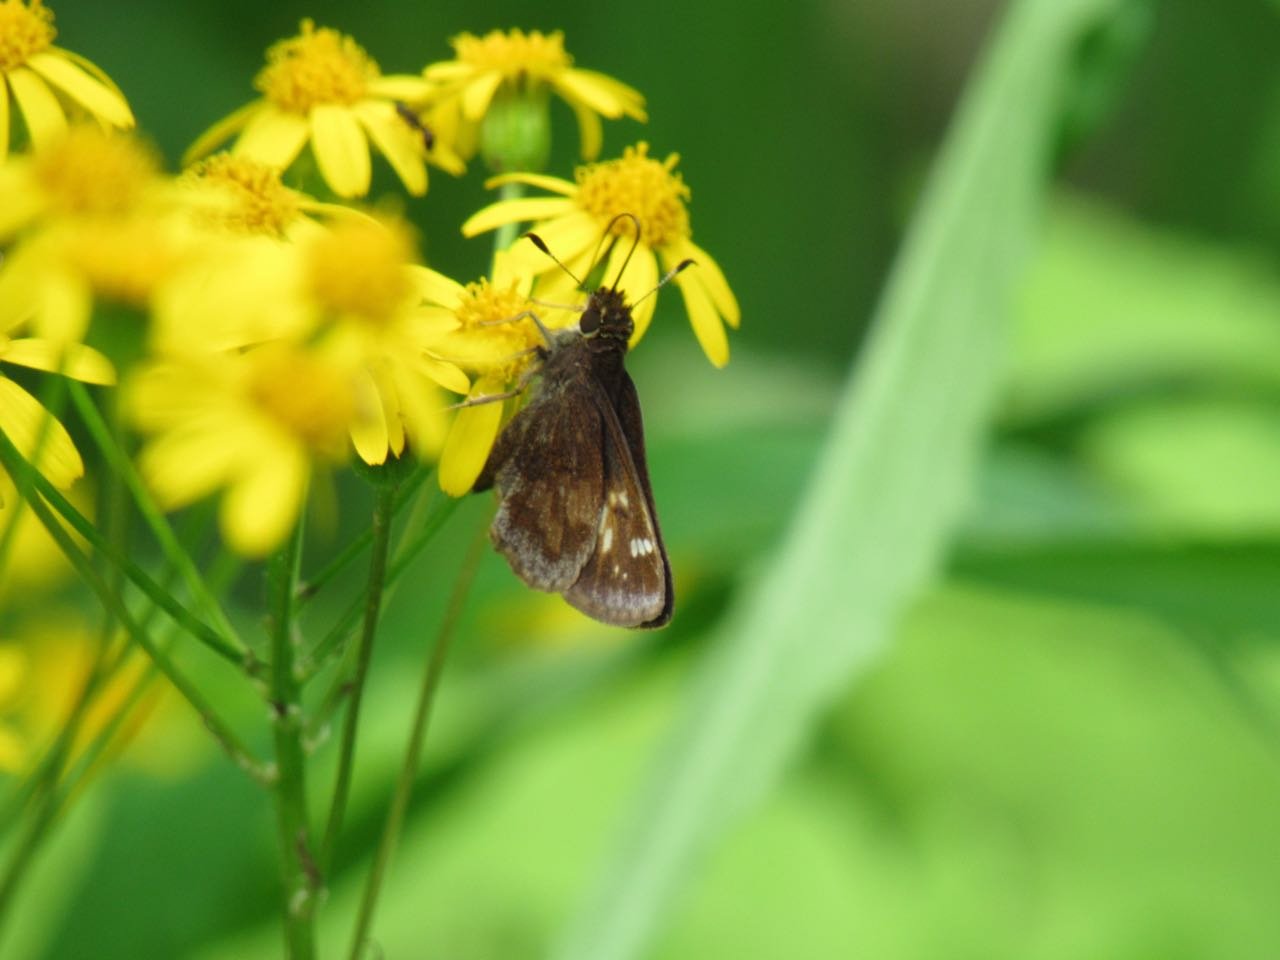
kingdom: Animalia
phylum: Arthropoda
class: Insecta
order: Lepidoptera
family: Hesperiidae
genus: Lon
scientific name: Lon hobomok
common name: Hobomok Skipper
